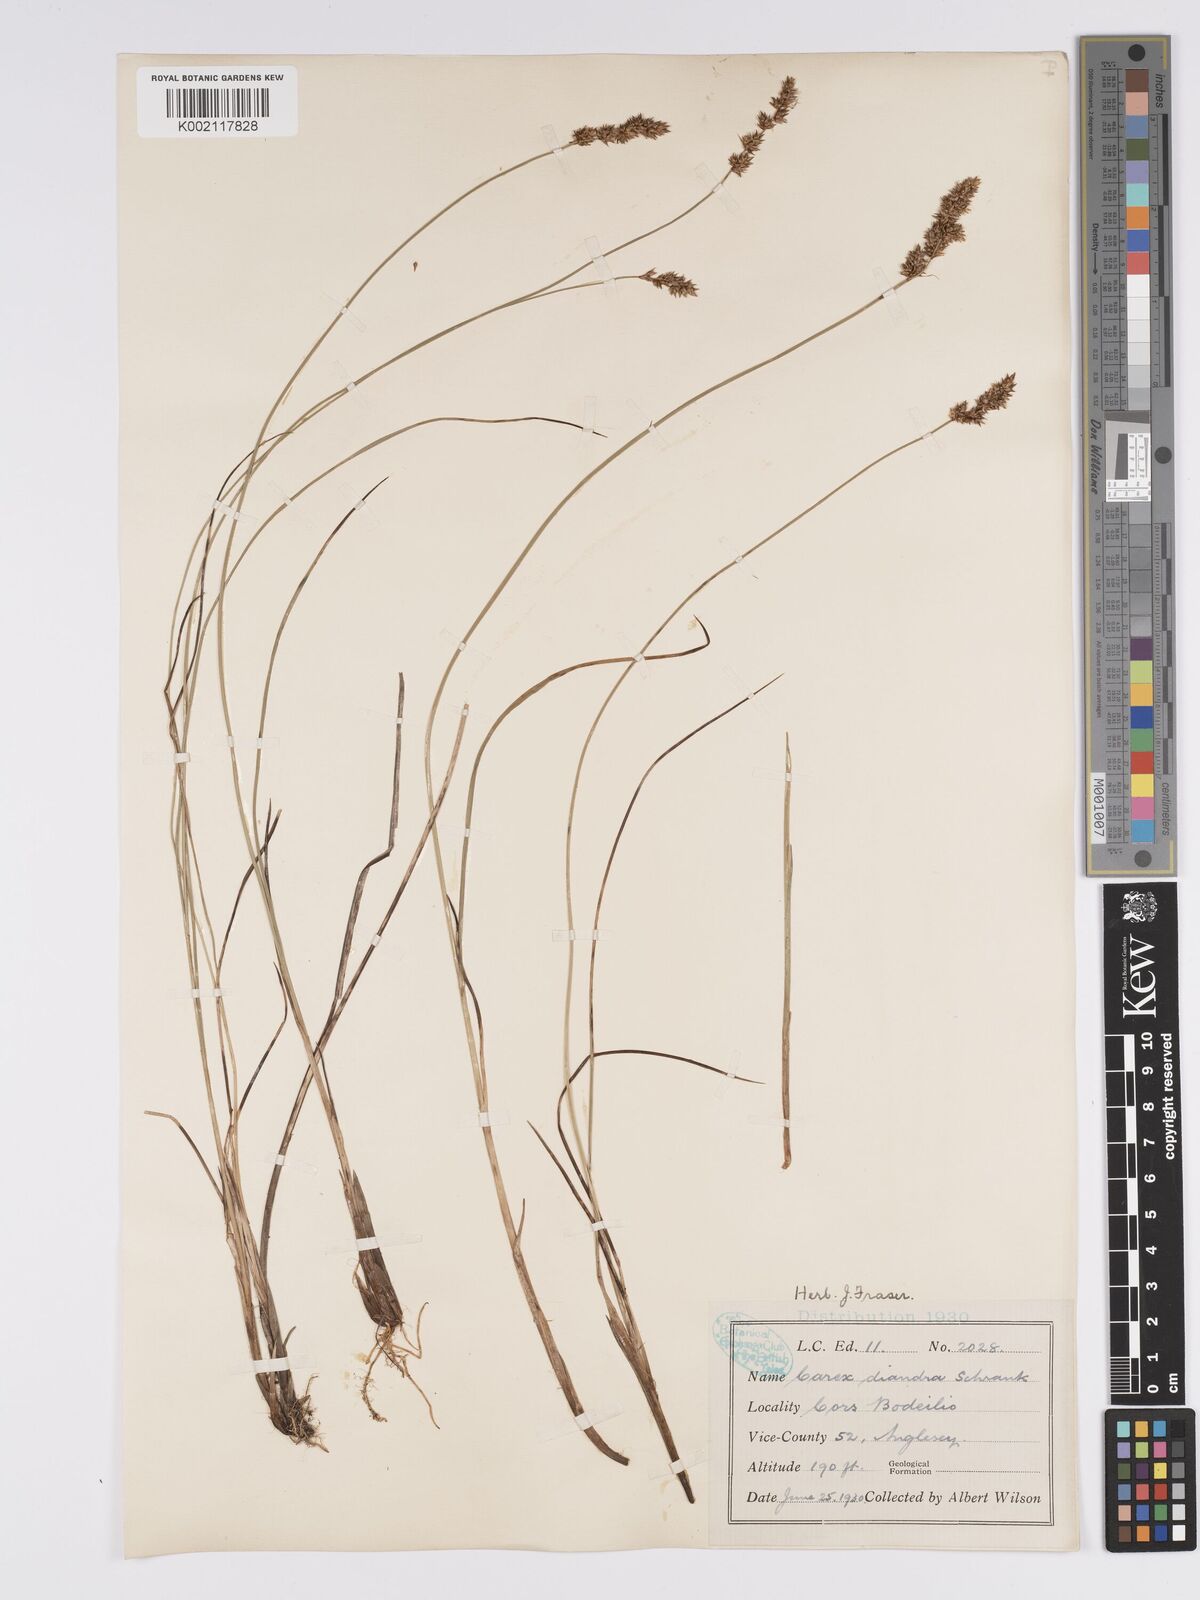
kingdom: Plantae
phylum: Tracheophyta
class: Liliopsida
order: Poales
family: Cyperaceae
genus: Carex
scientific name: Carex diandra
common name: Lesser tussock-sedge
